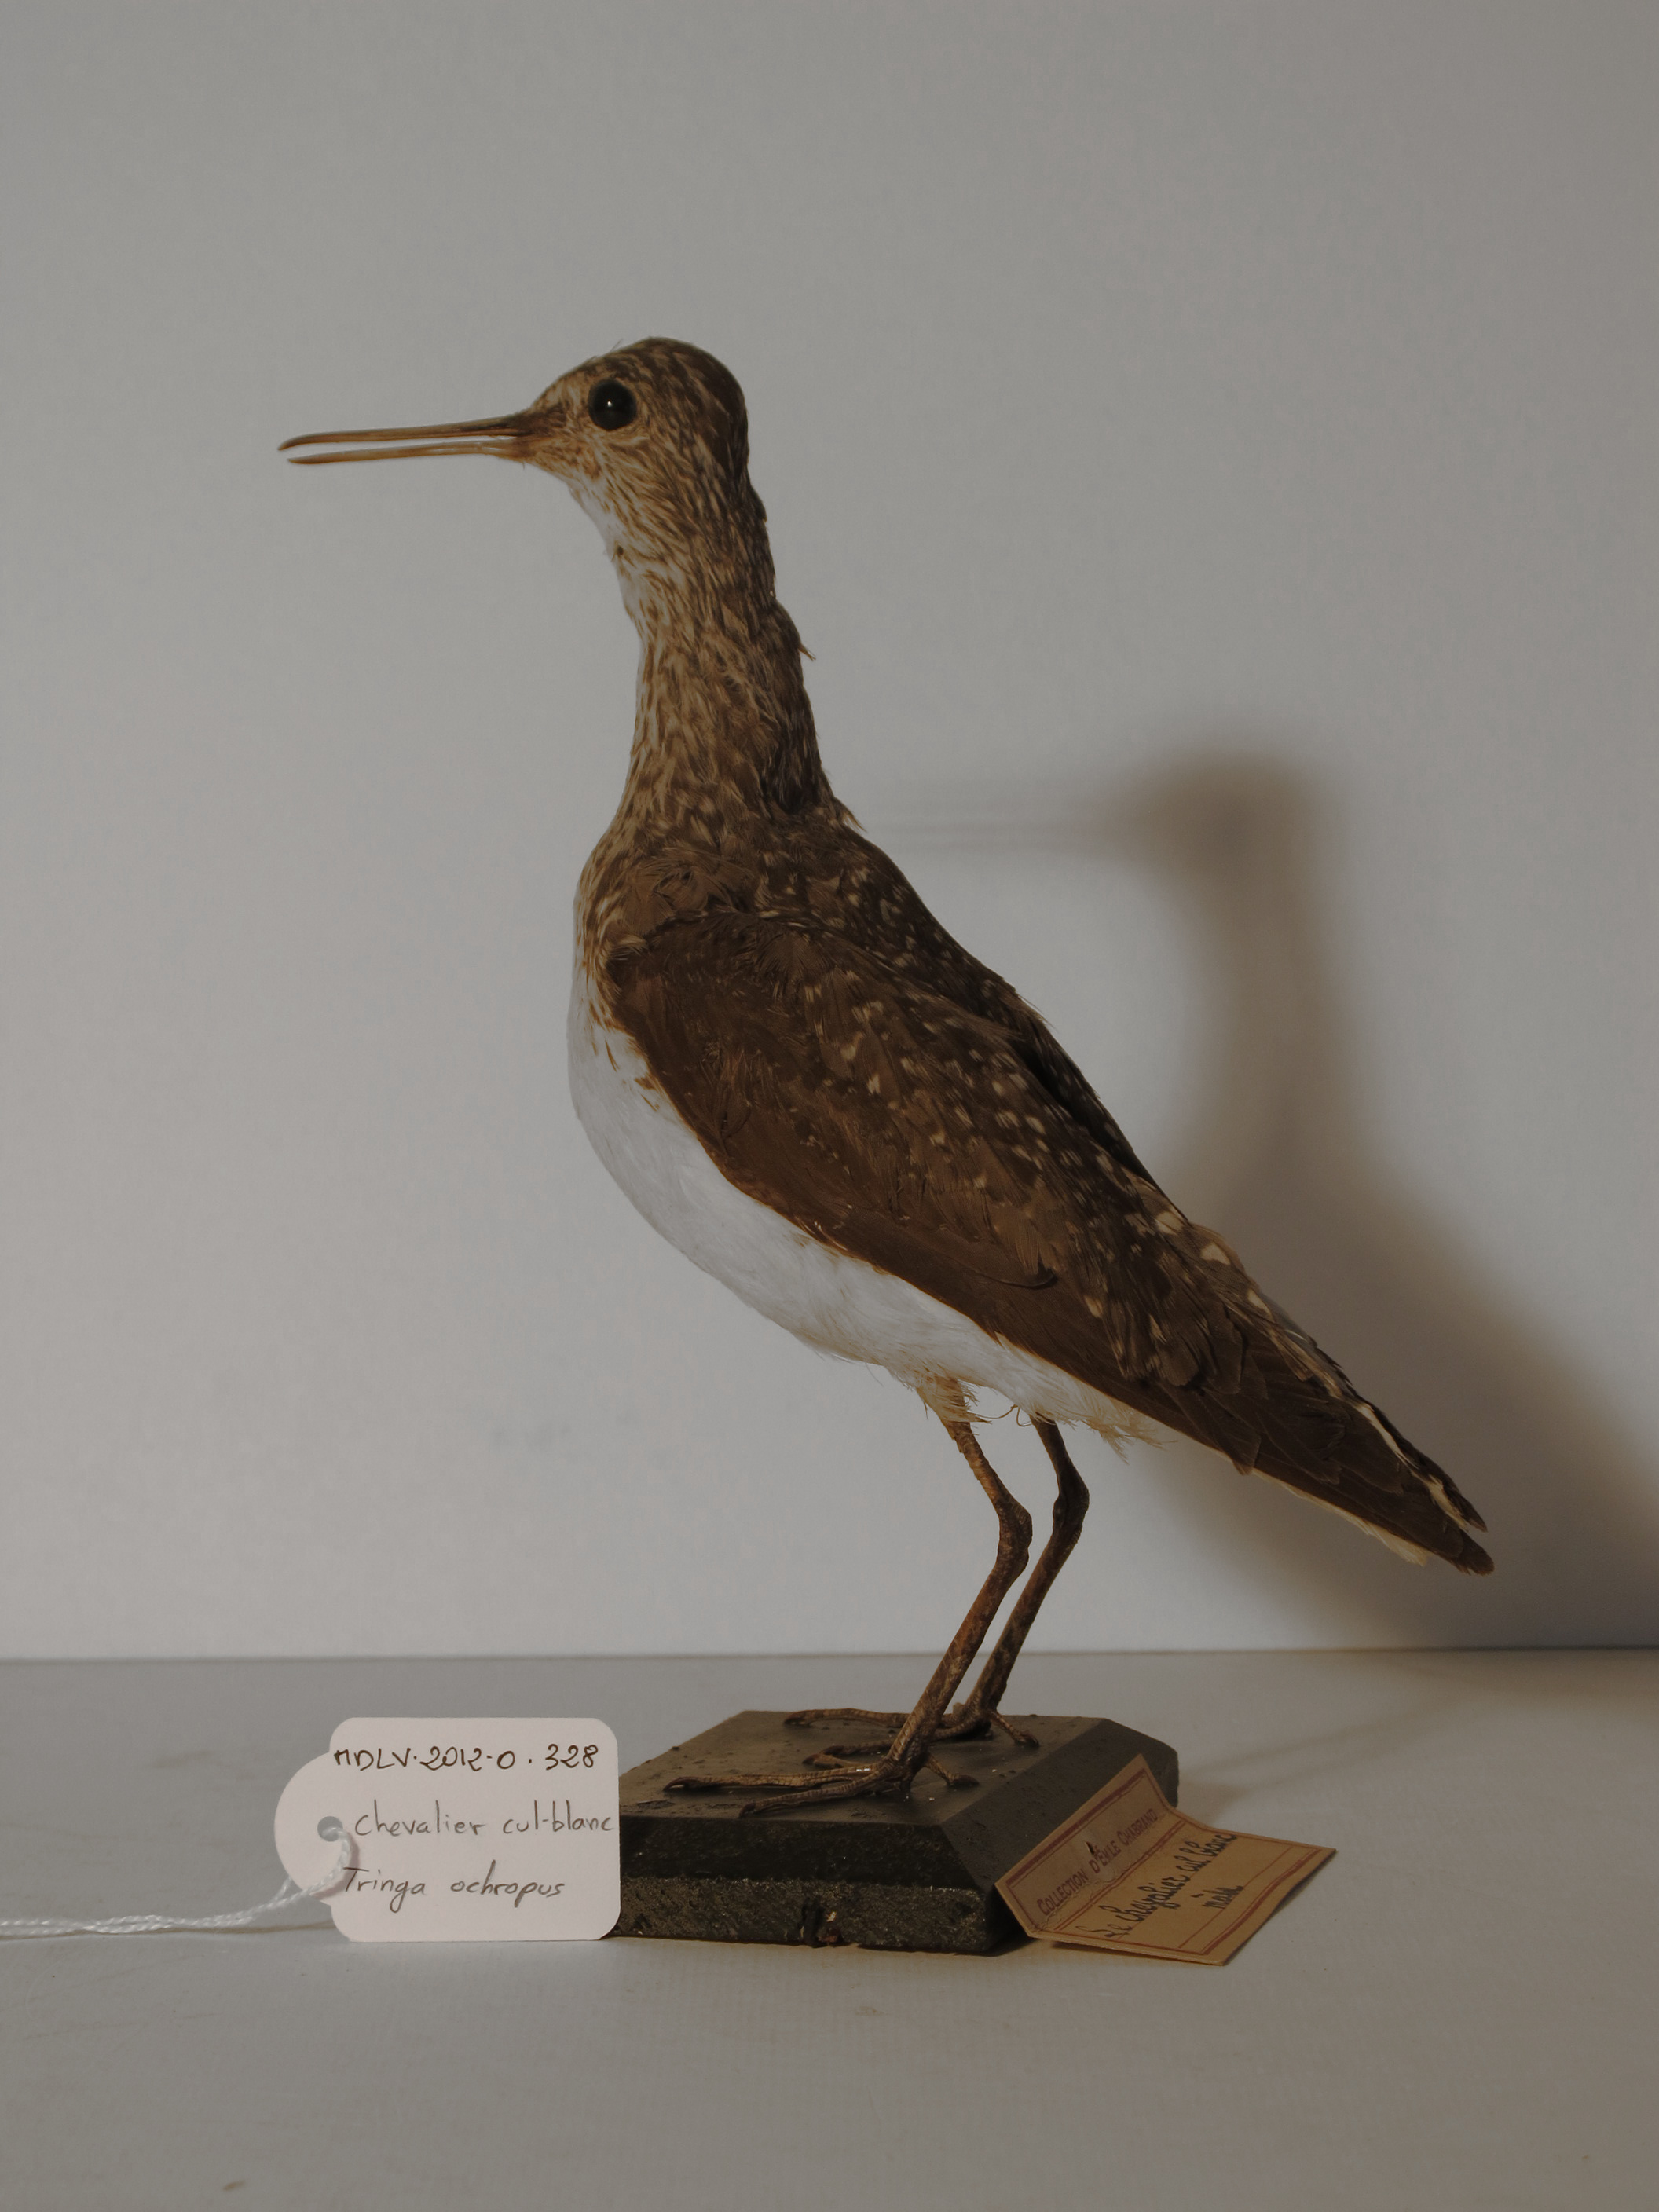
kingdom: Animalia
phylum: Chordata
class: Aves
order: Charadriiformes
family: Scolopacidae
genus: Tringa
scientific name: Tringa ochropus
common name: Green Sandpiper
